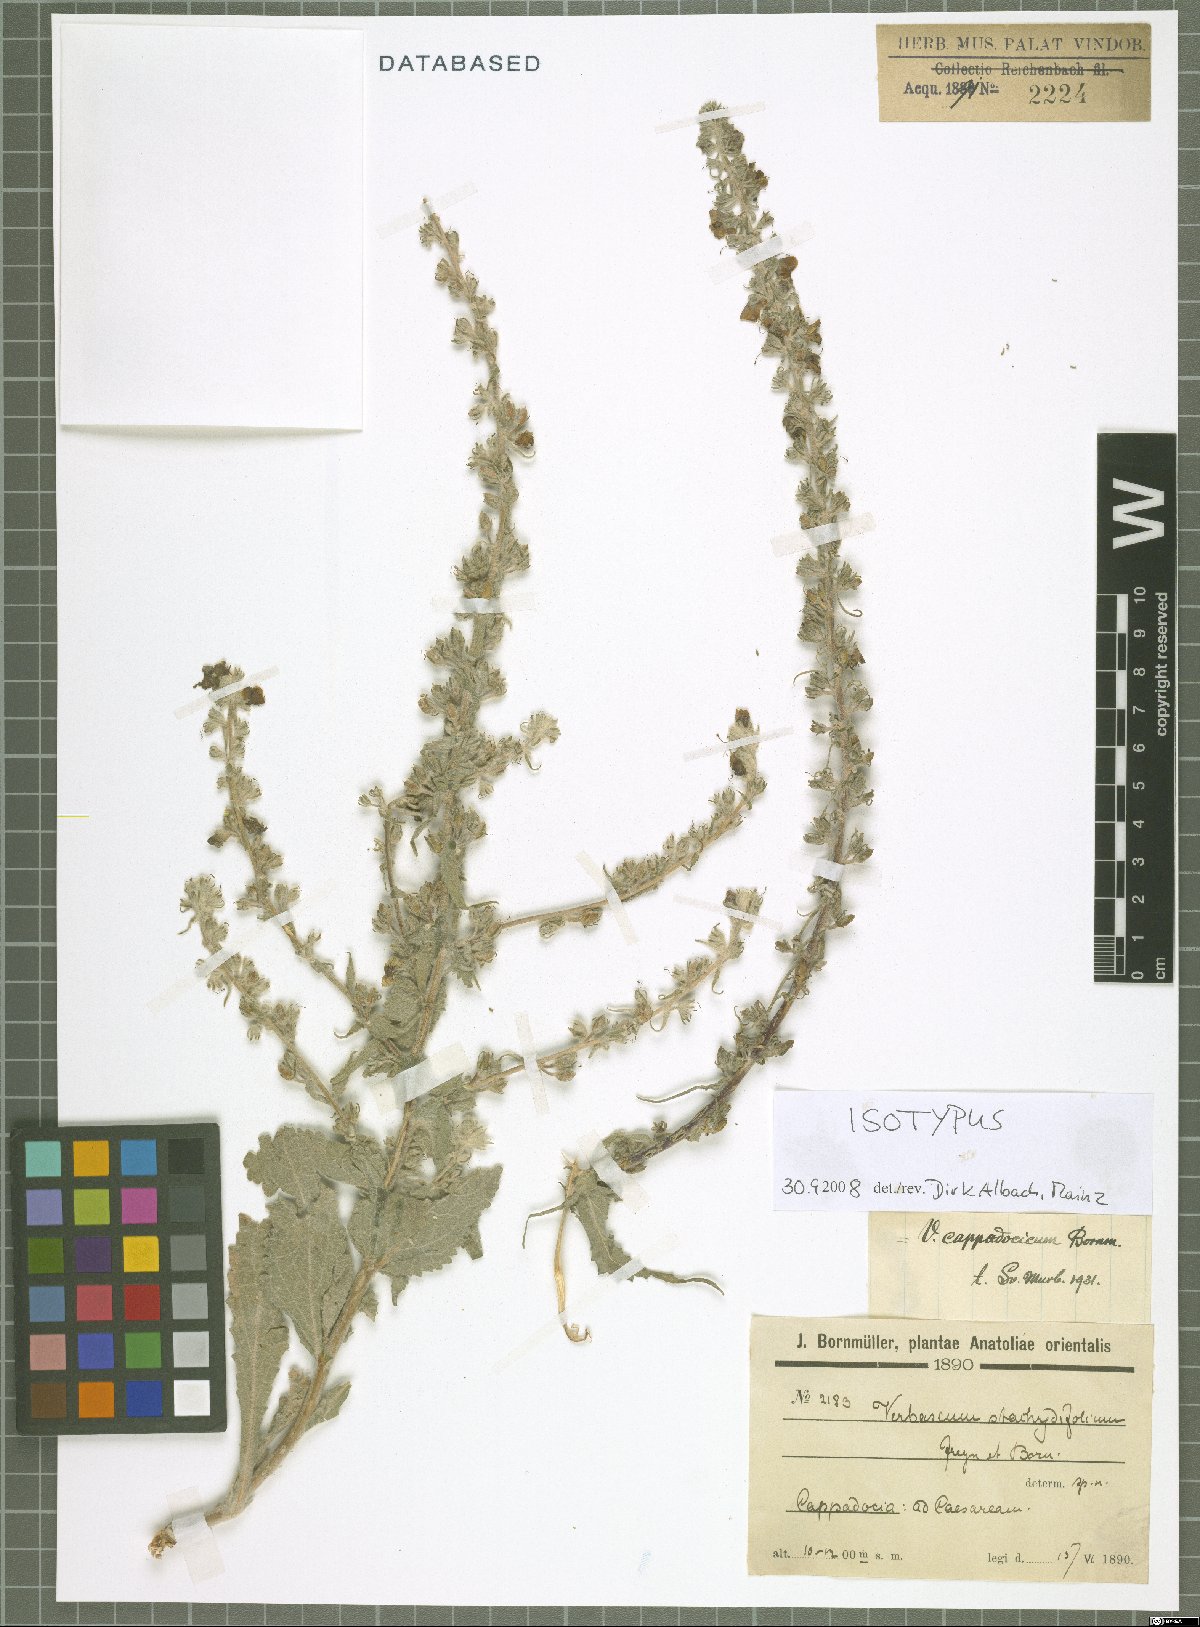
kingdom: Plantae
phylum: Tracheophyta
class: Magnoliopsida
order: Lamiales
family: Scrophulariaceae
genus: Verbascum
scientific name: Verbascum cappadocicum
